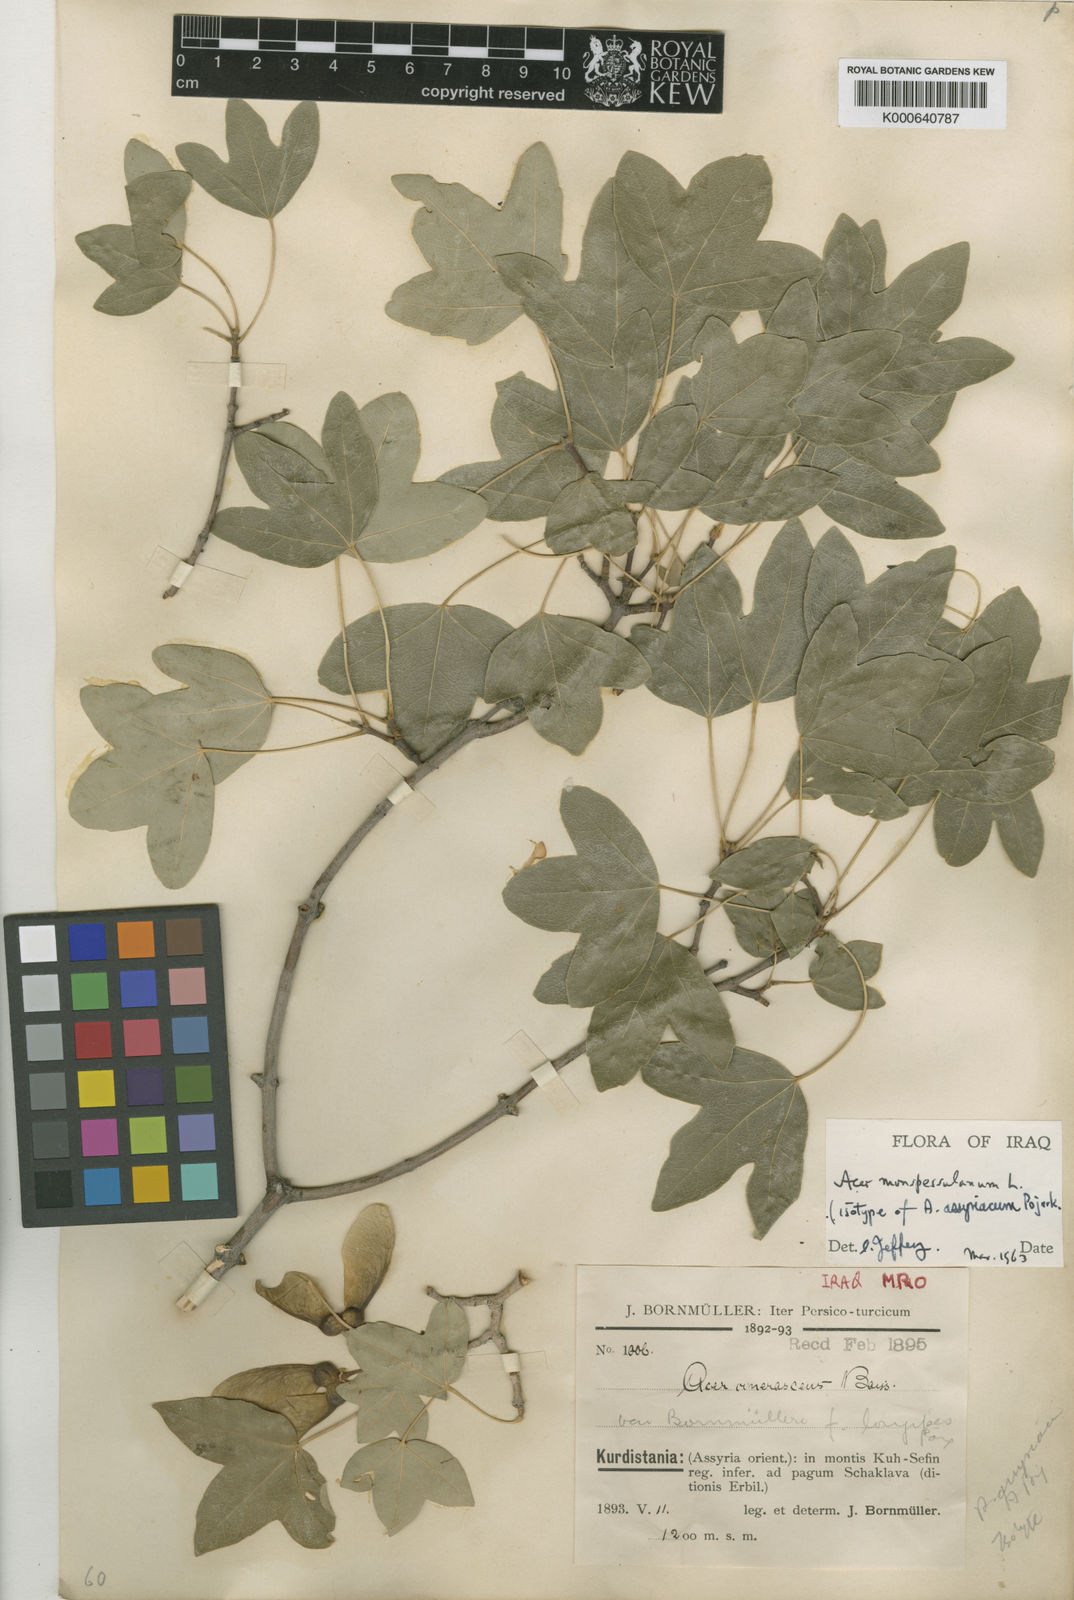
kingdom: Plantae
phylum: Tracheophyta
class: Magnoliopsida
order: Sapindales
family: Sapindaceae
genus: Acer
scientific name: Acer monspessulanum
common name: Montpellier maple
